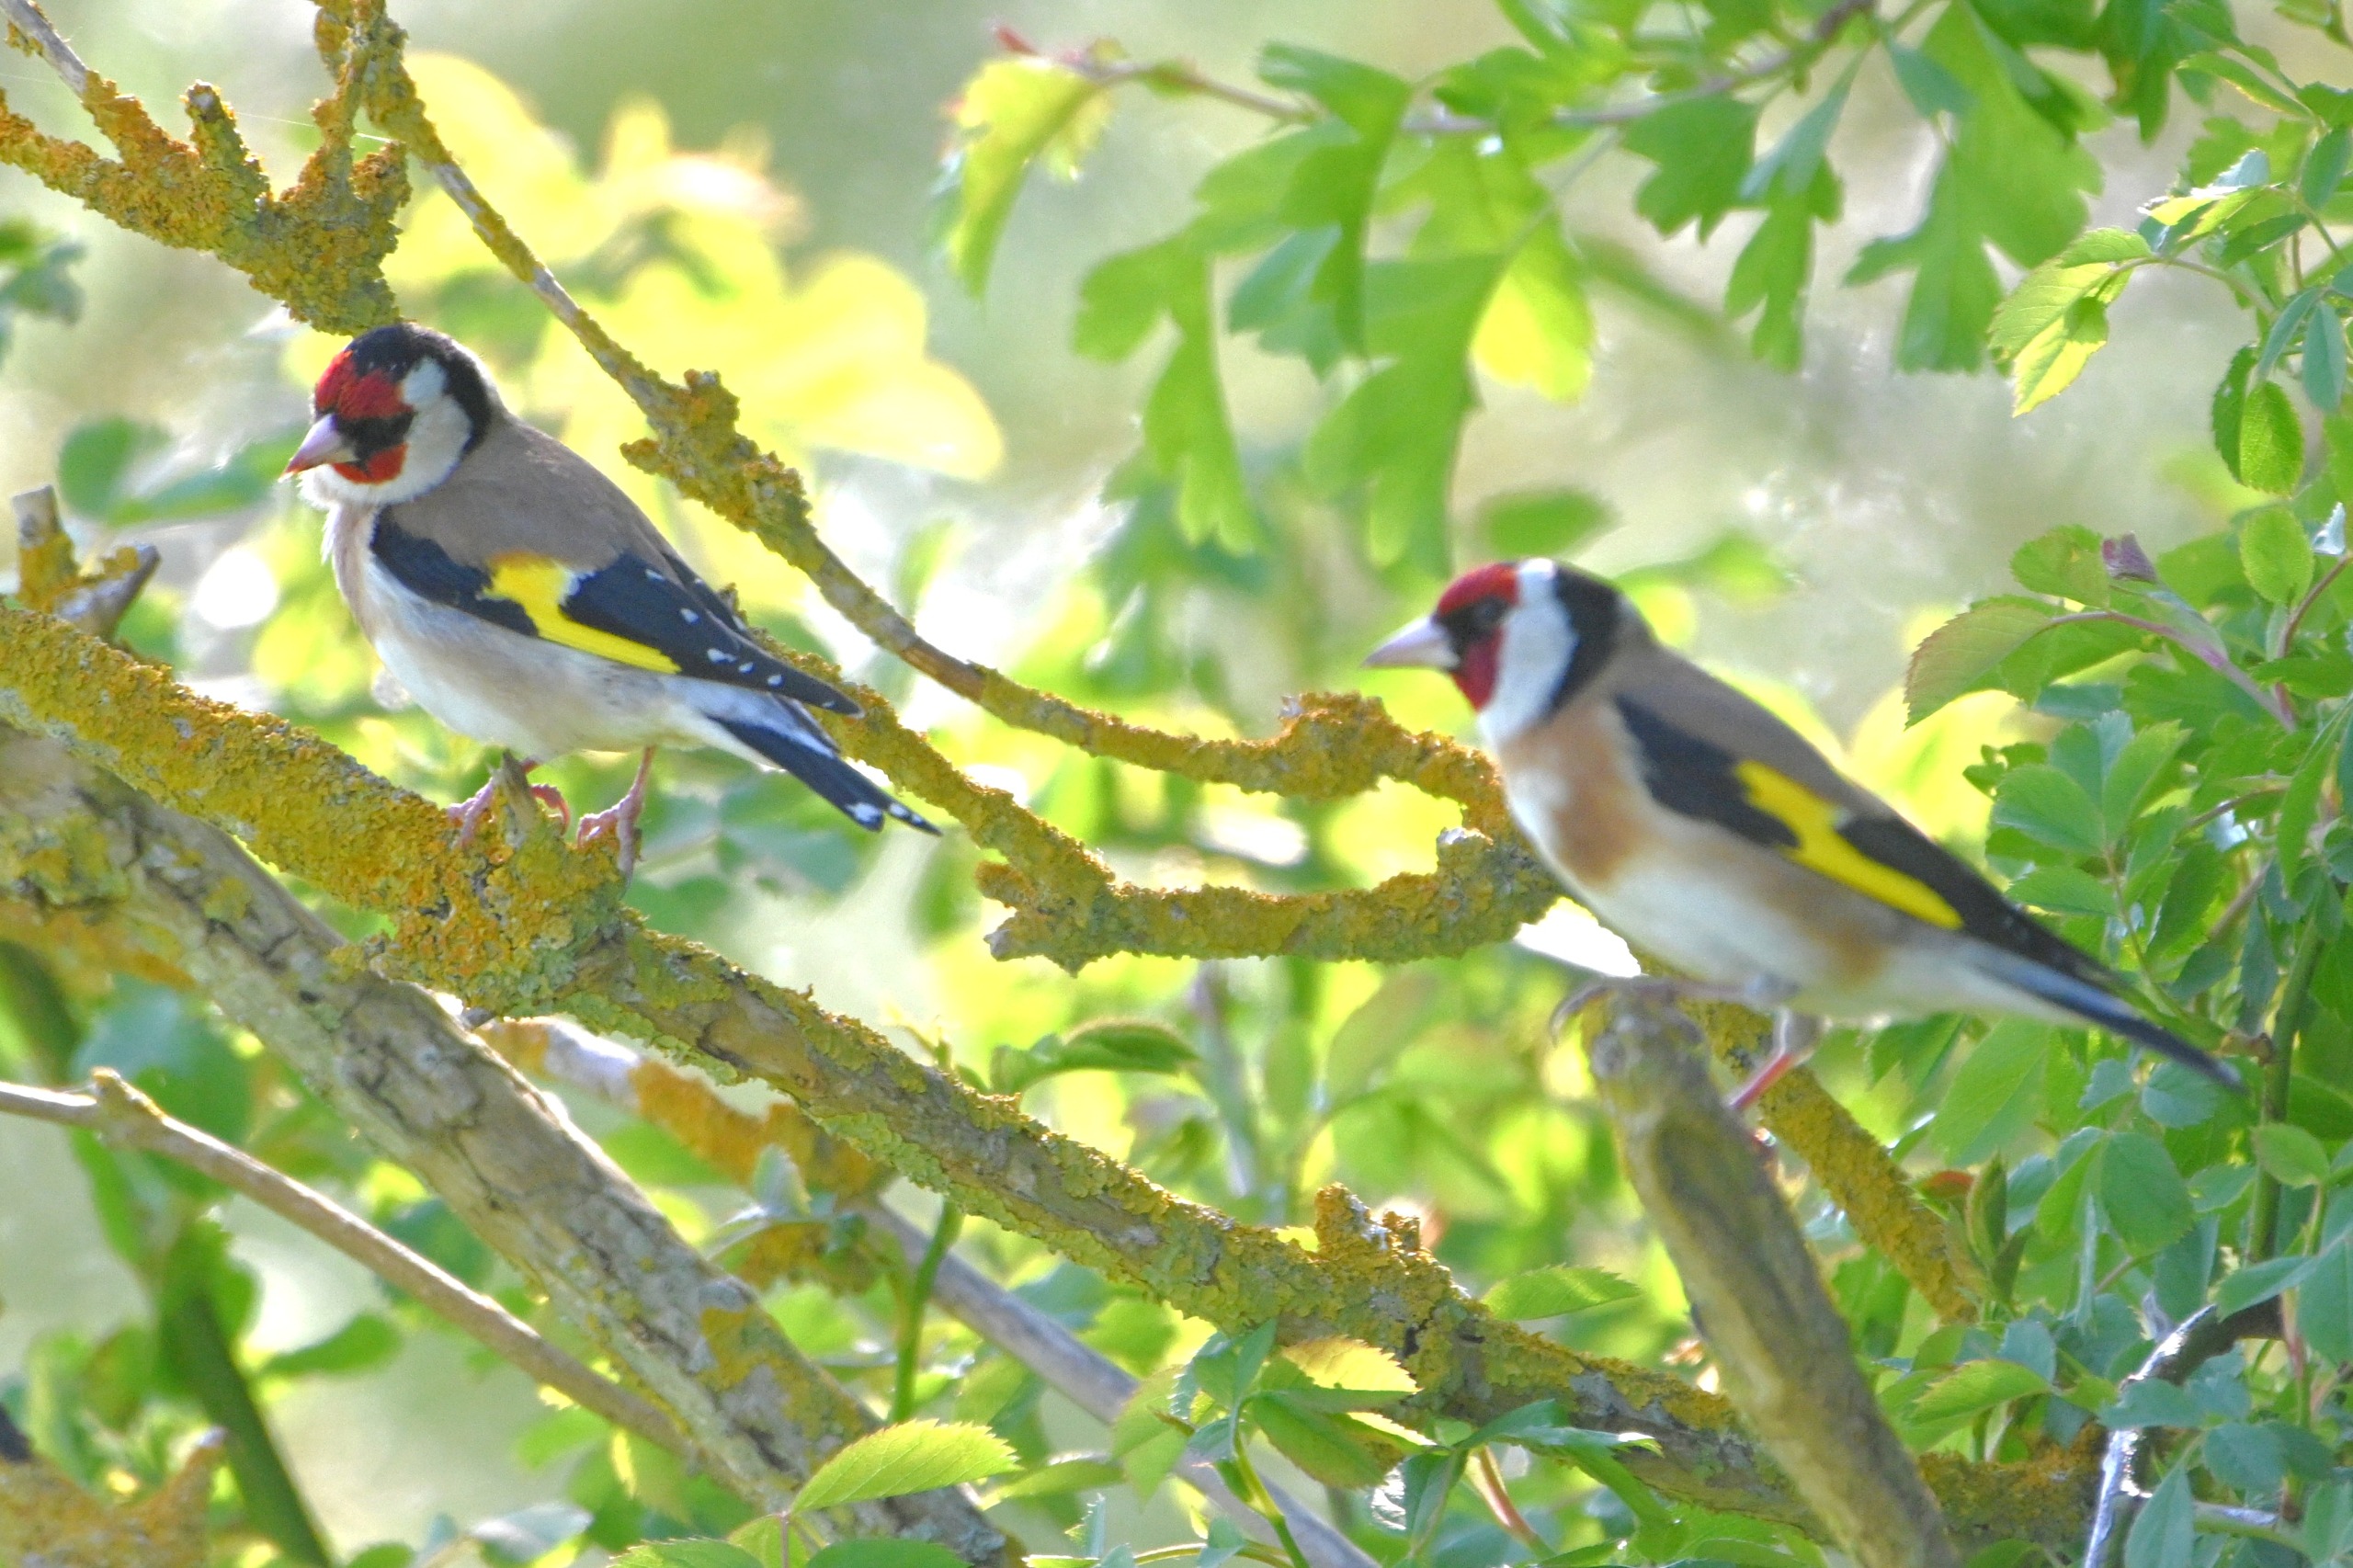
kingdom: Animalia
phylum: Chordata
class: Aves
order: Passeriformes
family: Fringillidae
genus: Carduelis
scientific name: Carduelis carduelis
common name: Stillits
